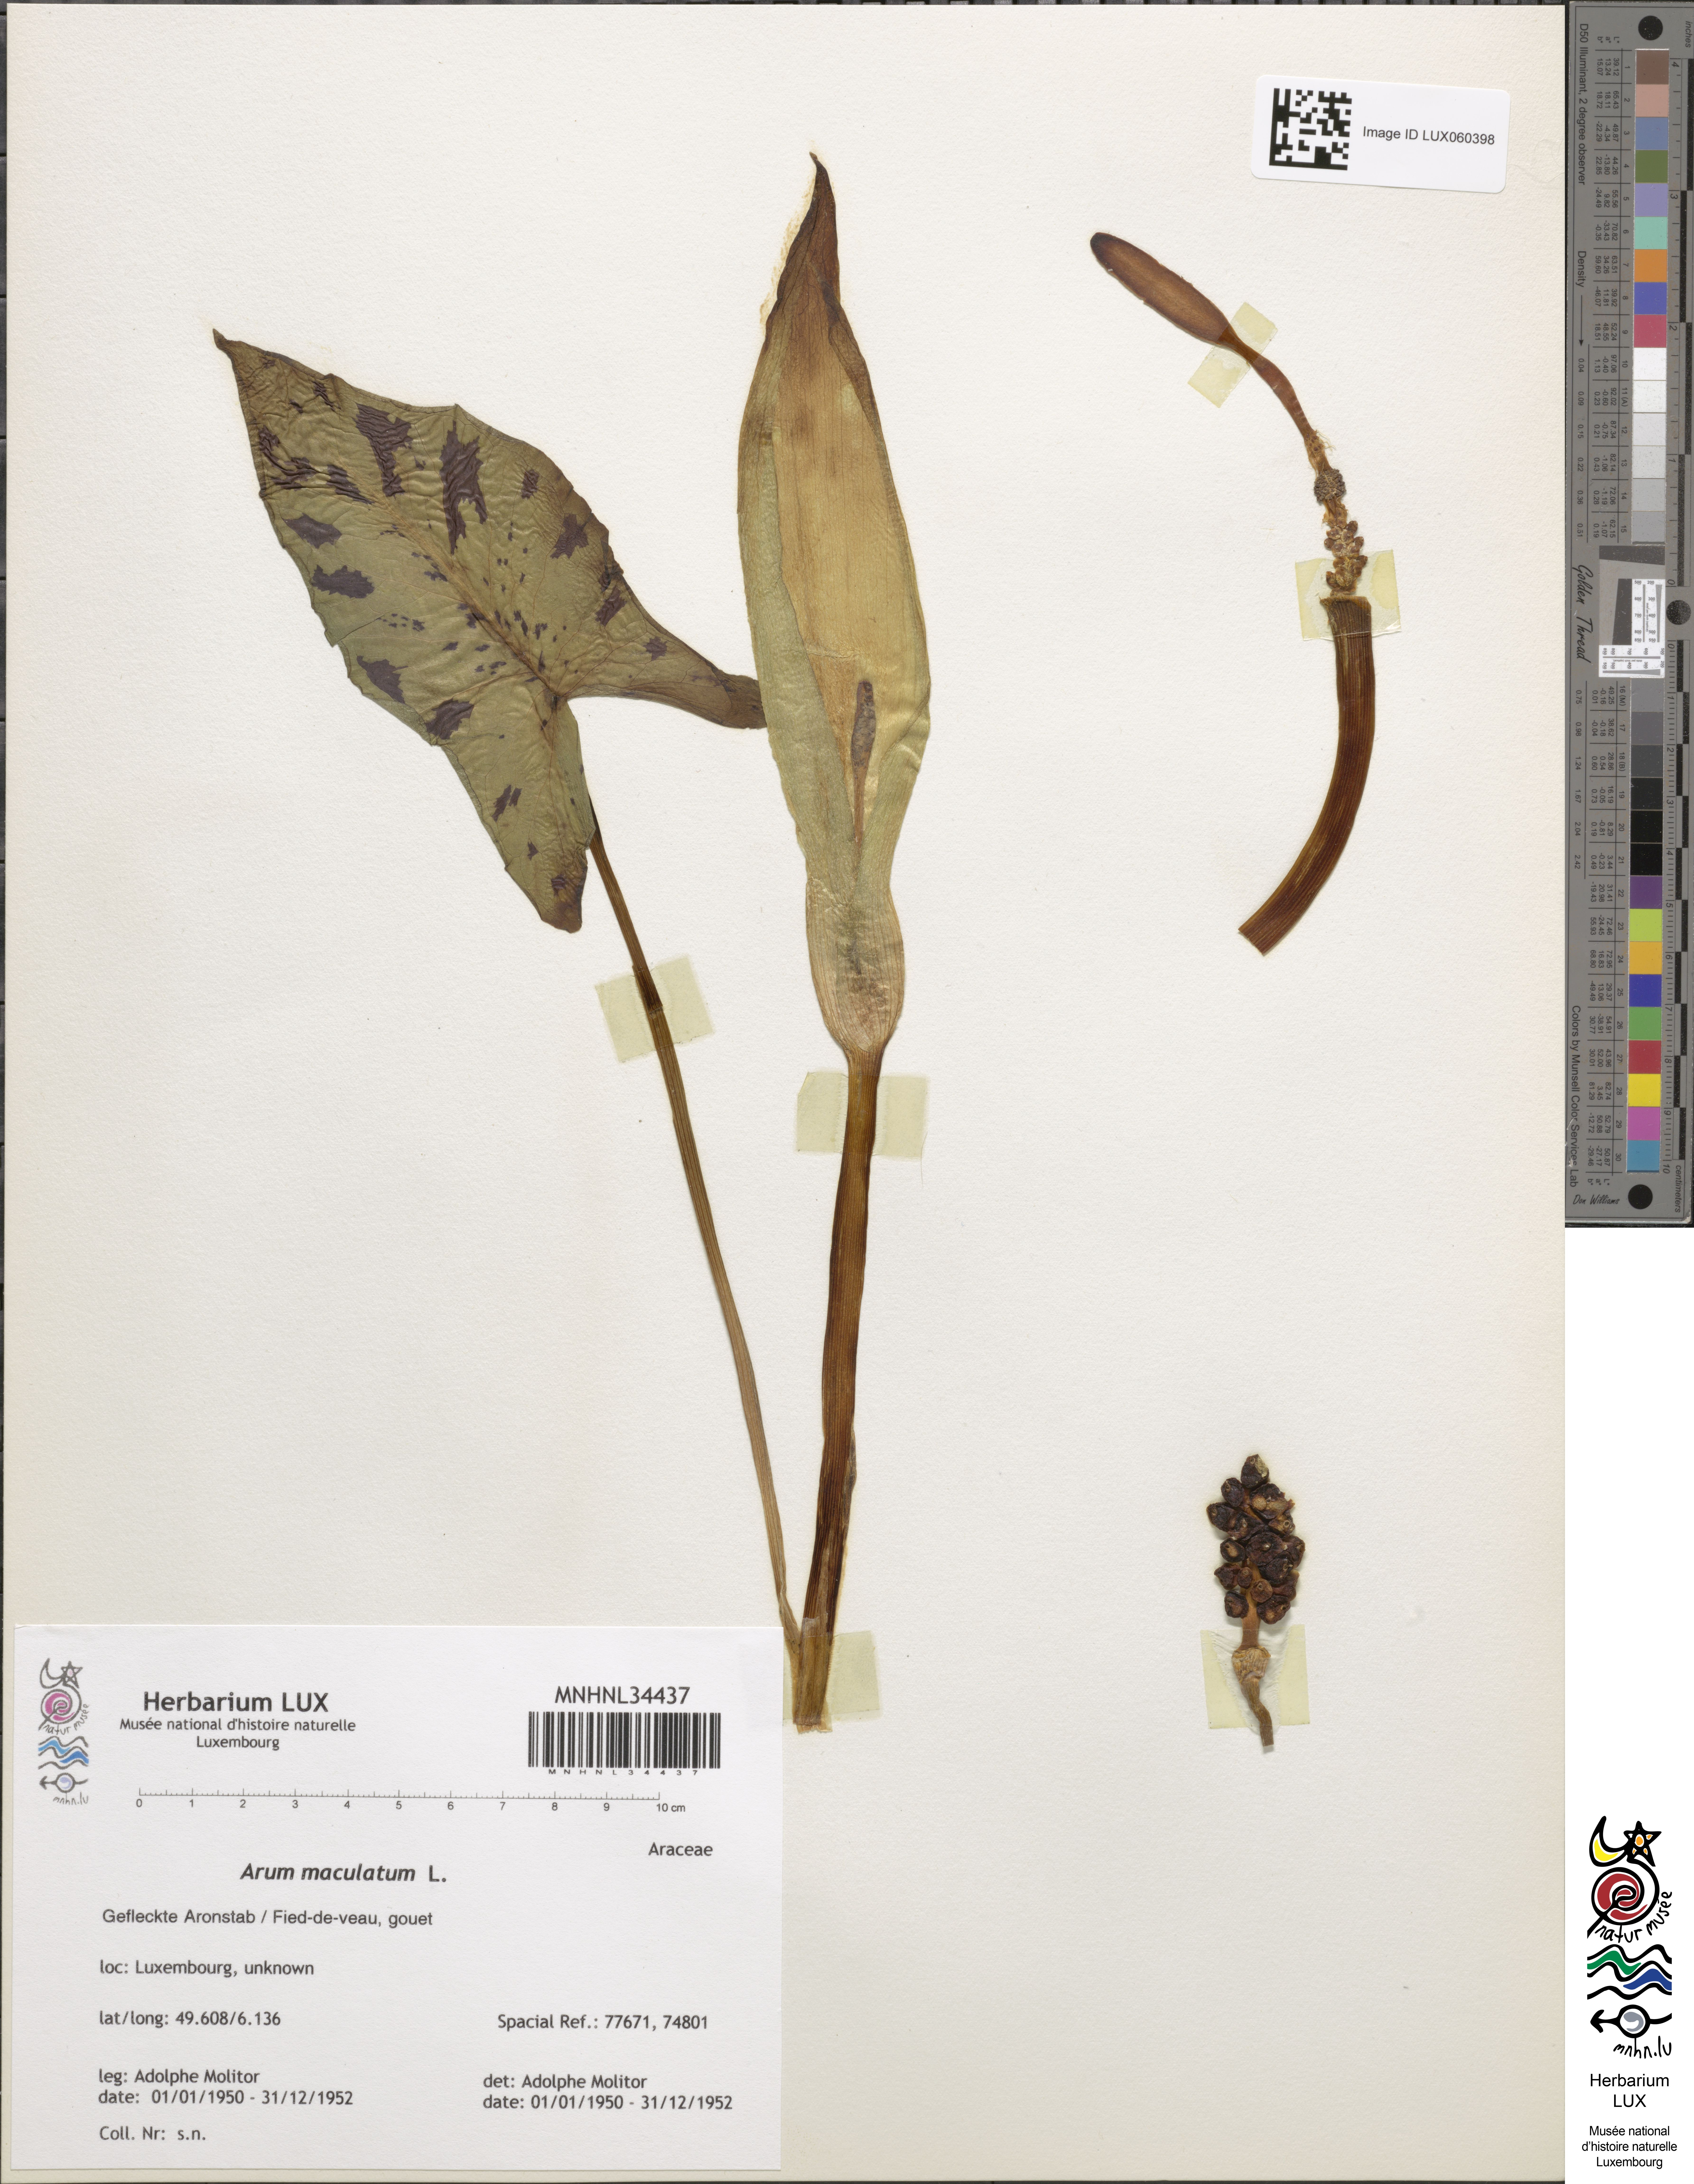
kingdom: Plantae
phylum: Tracheophyta
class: Liliopsida
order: Alismatales
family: Araceae
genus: Arum
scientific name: Arum maculatum
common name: Lords-and-ladies
